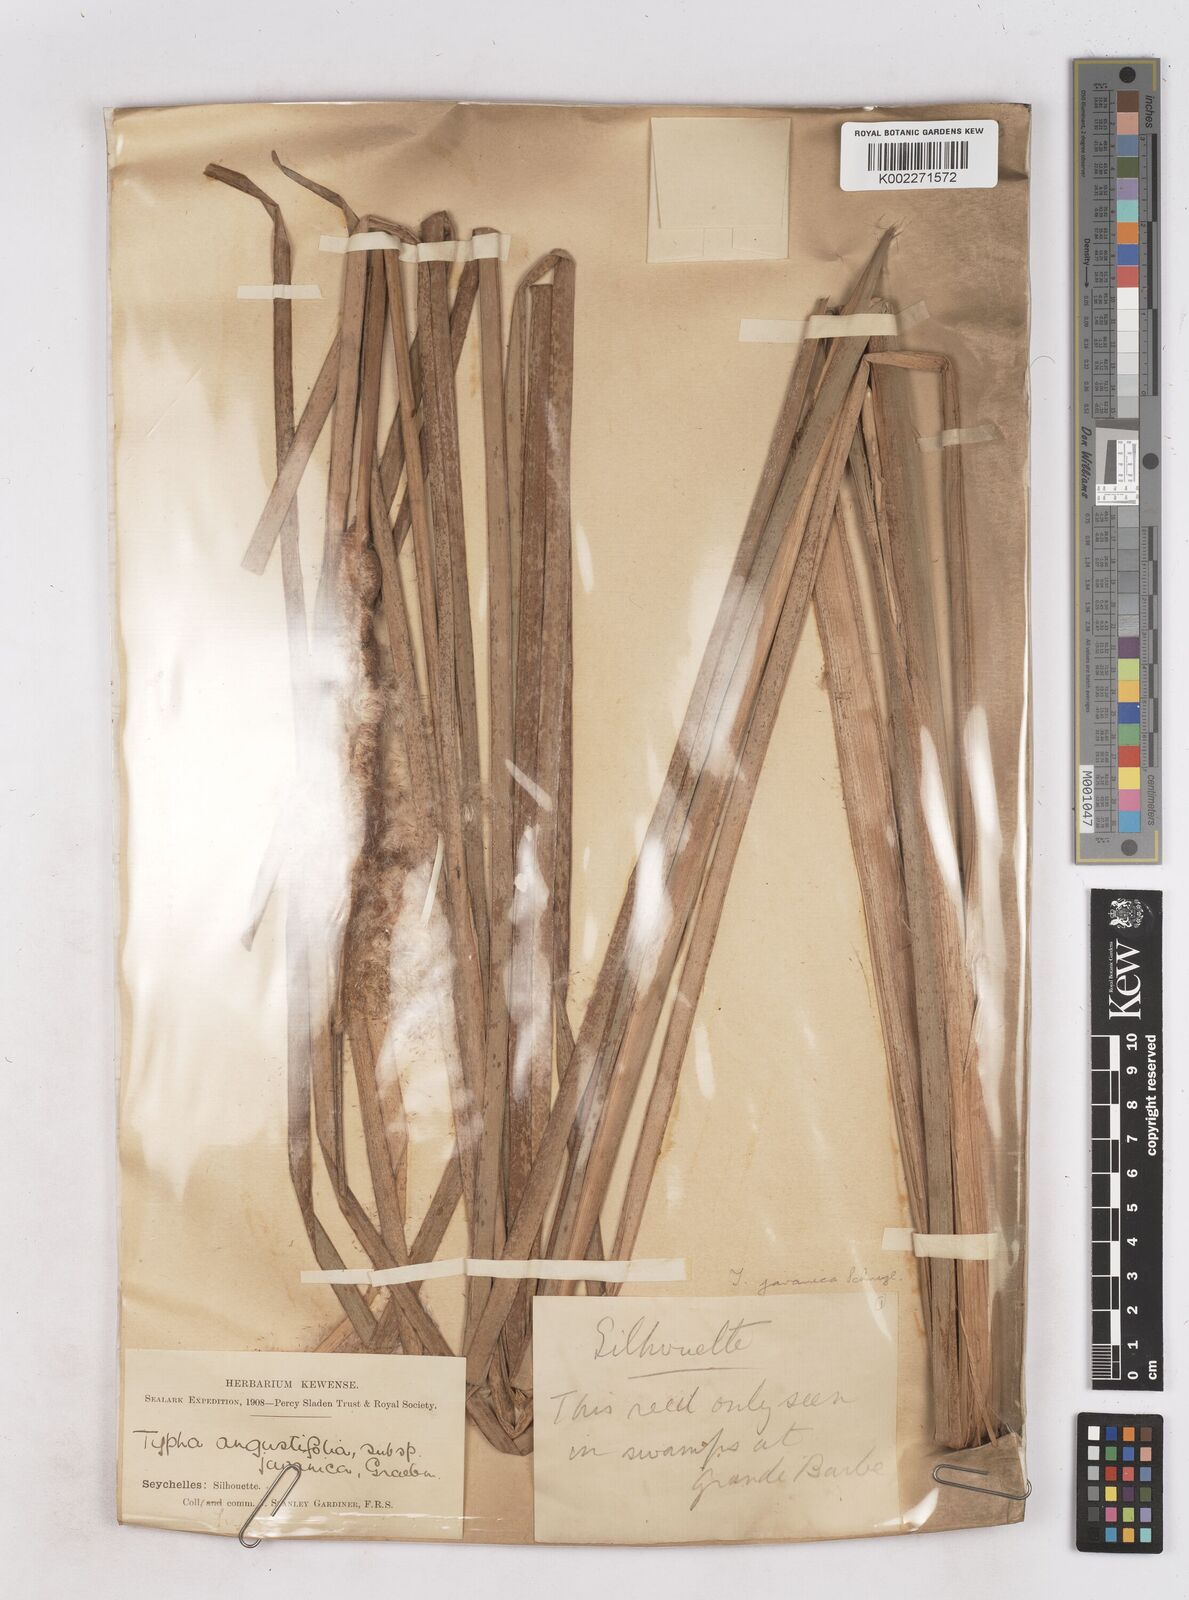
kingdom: Plantae
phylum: Tracheophyta
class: Liliopsida
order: Poales
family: Typhaceae
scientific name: Typhaceae
